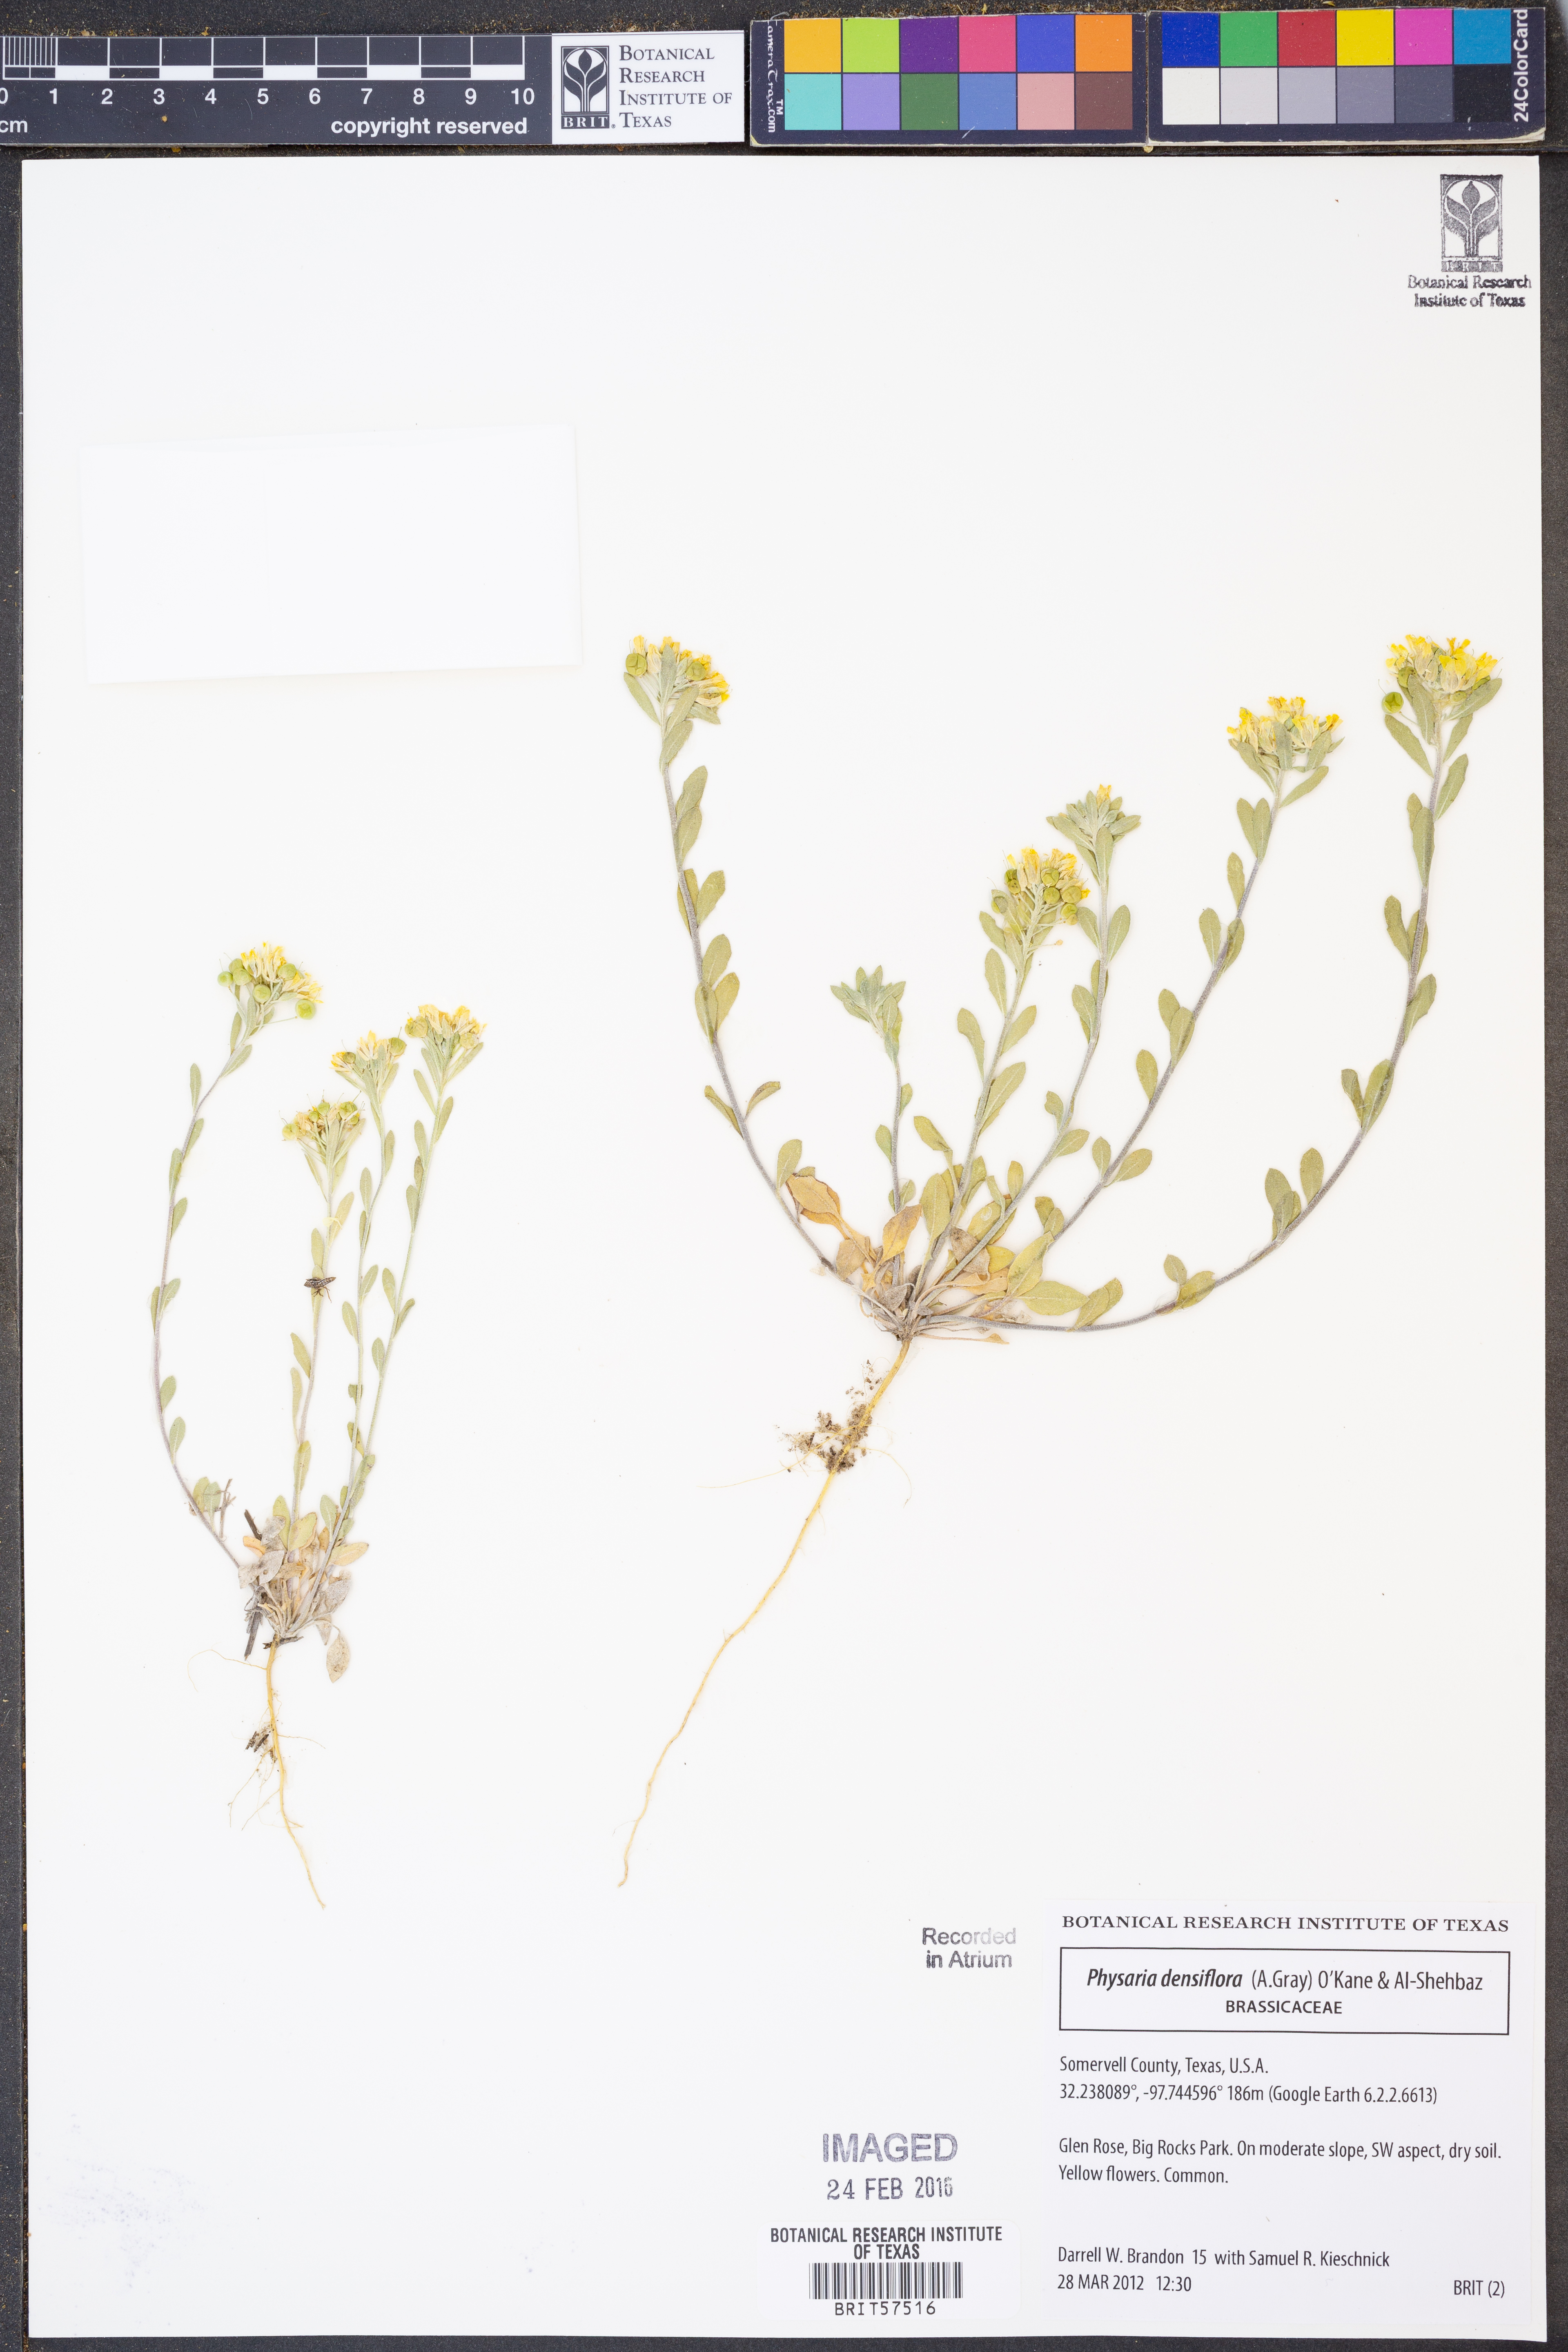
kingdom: Plantae
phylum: Tracheophyta
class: Magnoliopsida
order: Brassicales
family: Brassicaceae
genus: Physaria
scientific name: Physaria densiflora
